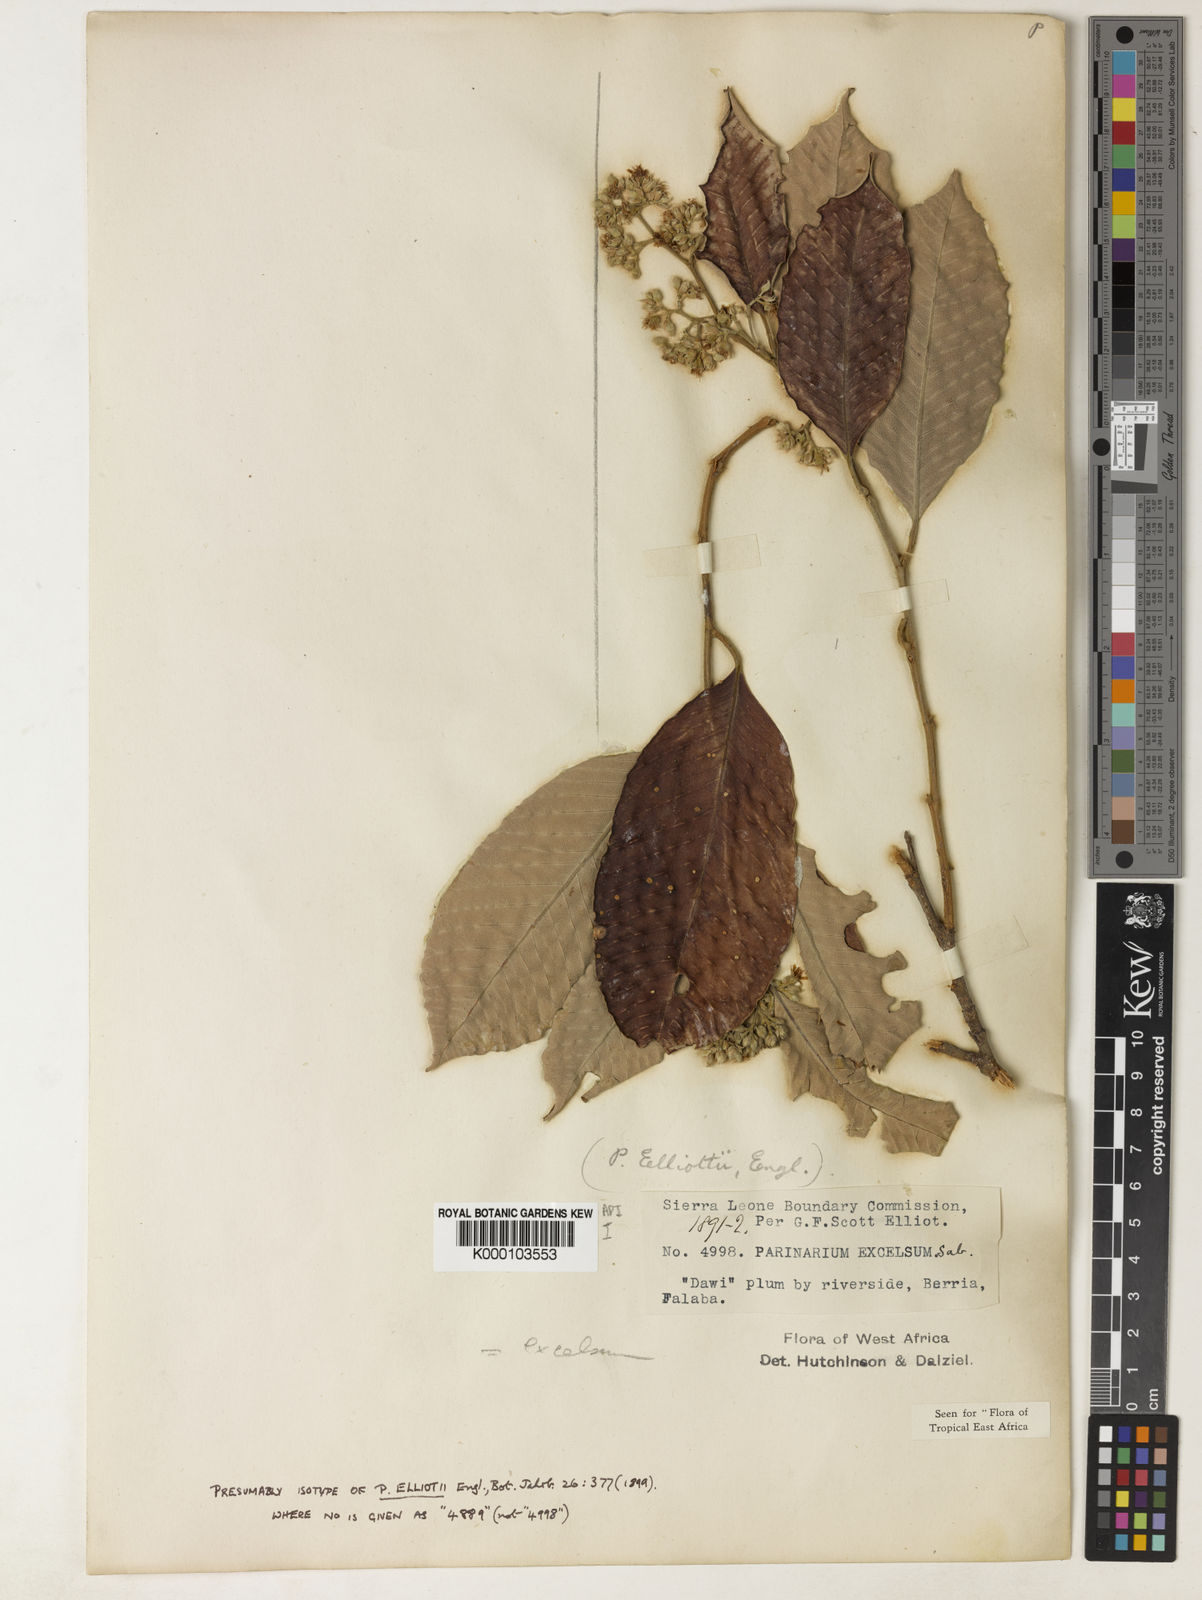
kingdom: Plantae
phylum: Tracheophyta
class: Magnoliopsida
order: Malpighiales
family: Chrysobalanaceae
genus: Parinari
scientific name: Parinari excelsa
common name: Guinea-plum
